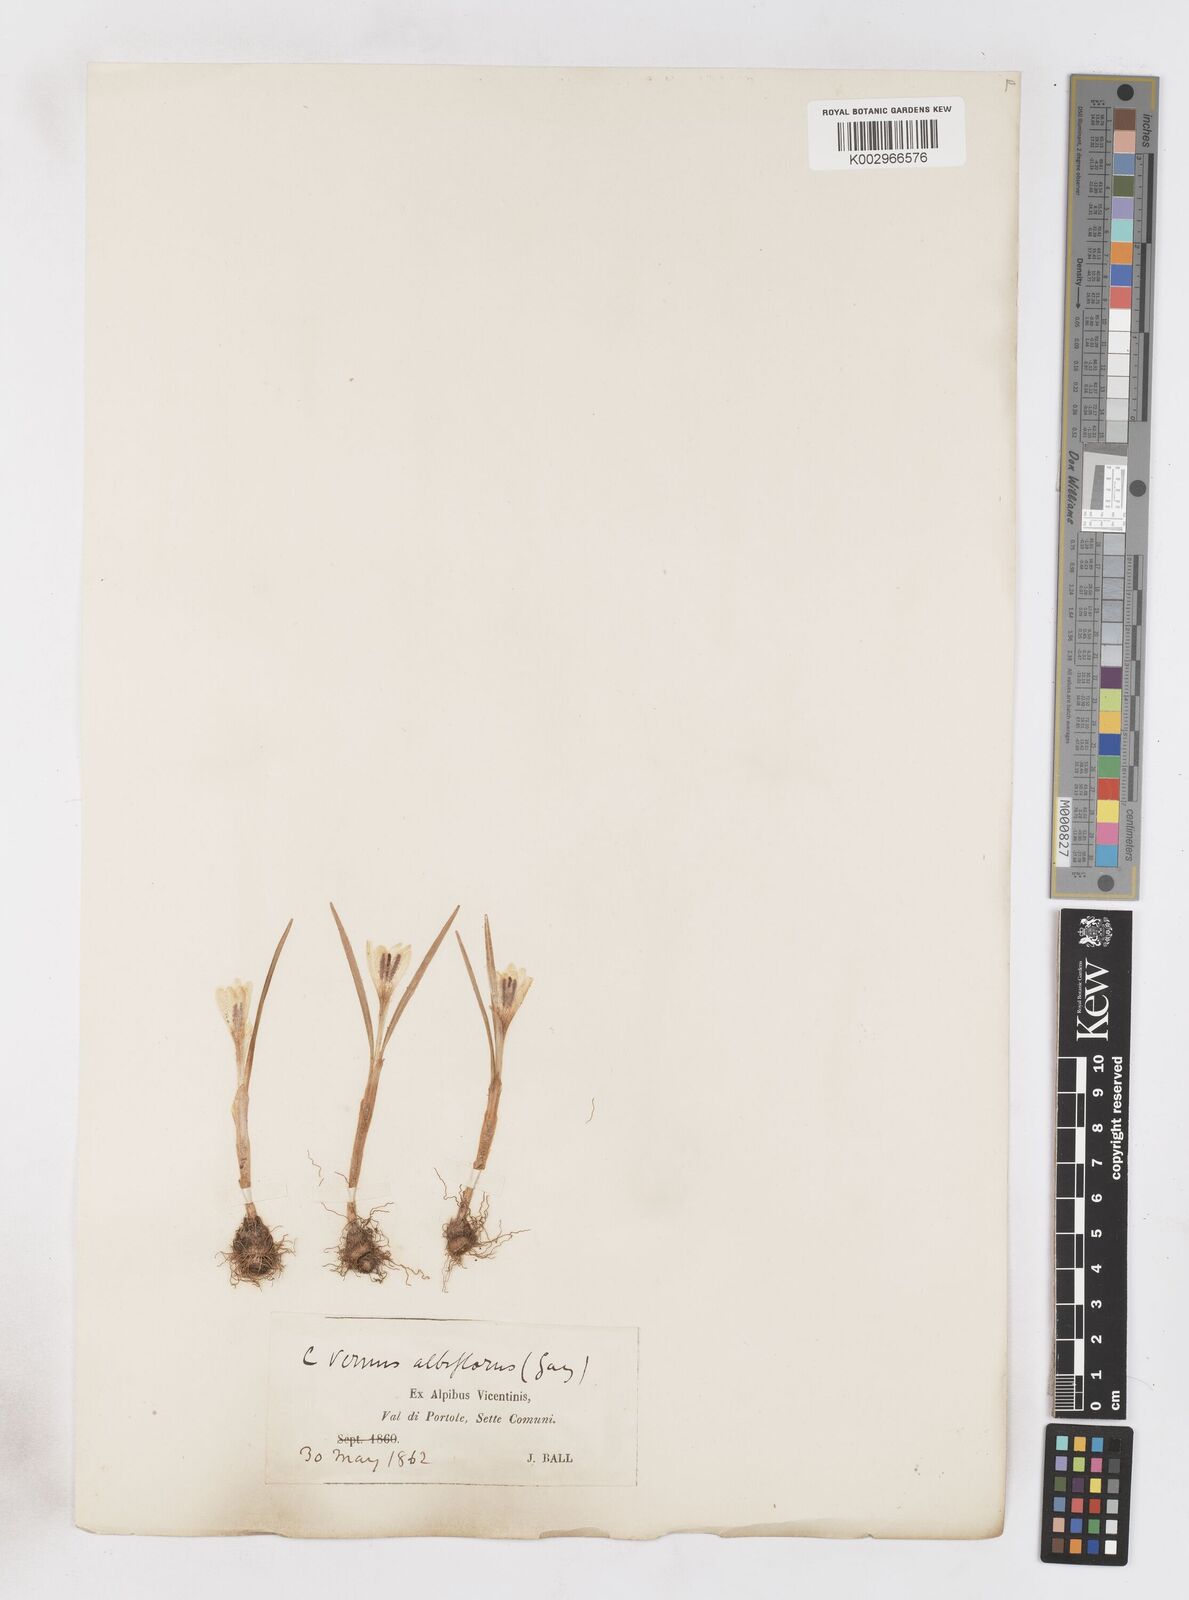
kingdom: Plantae
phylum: Tracheophyta
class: Liliopsida
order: Asparagales
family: Iridaceae
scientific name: Iridaceae
